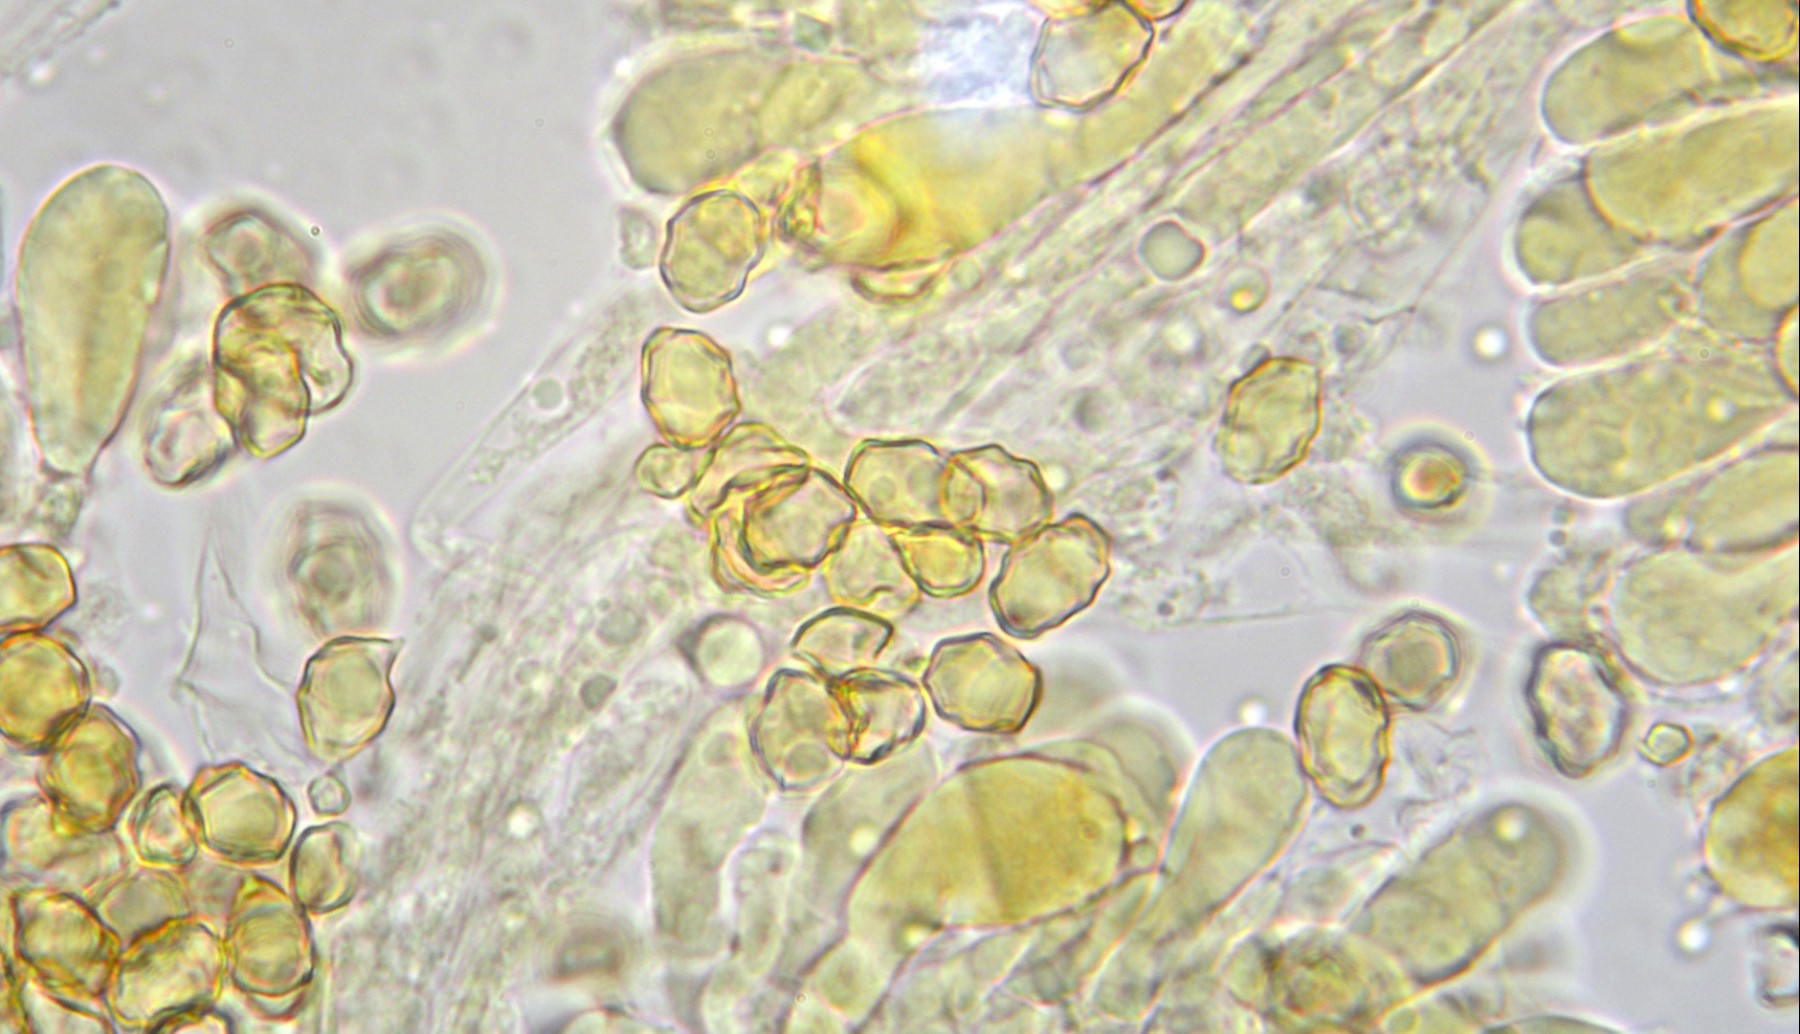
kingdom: Fungi
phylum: Basidiomycota
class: Agaricomycetes
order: Agaricales
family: Entolomataceae
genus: Entoloma
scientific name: Entoloma neglectum
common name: bleg rødblad
